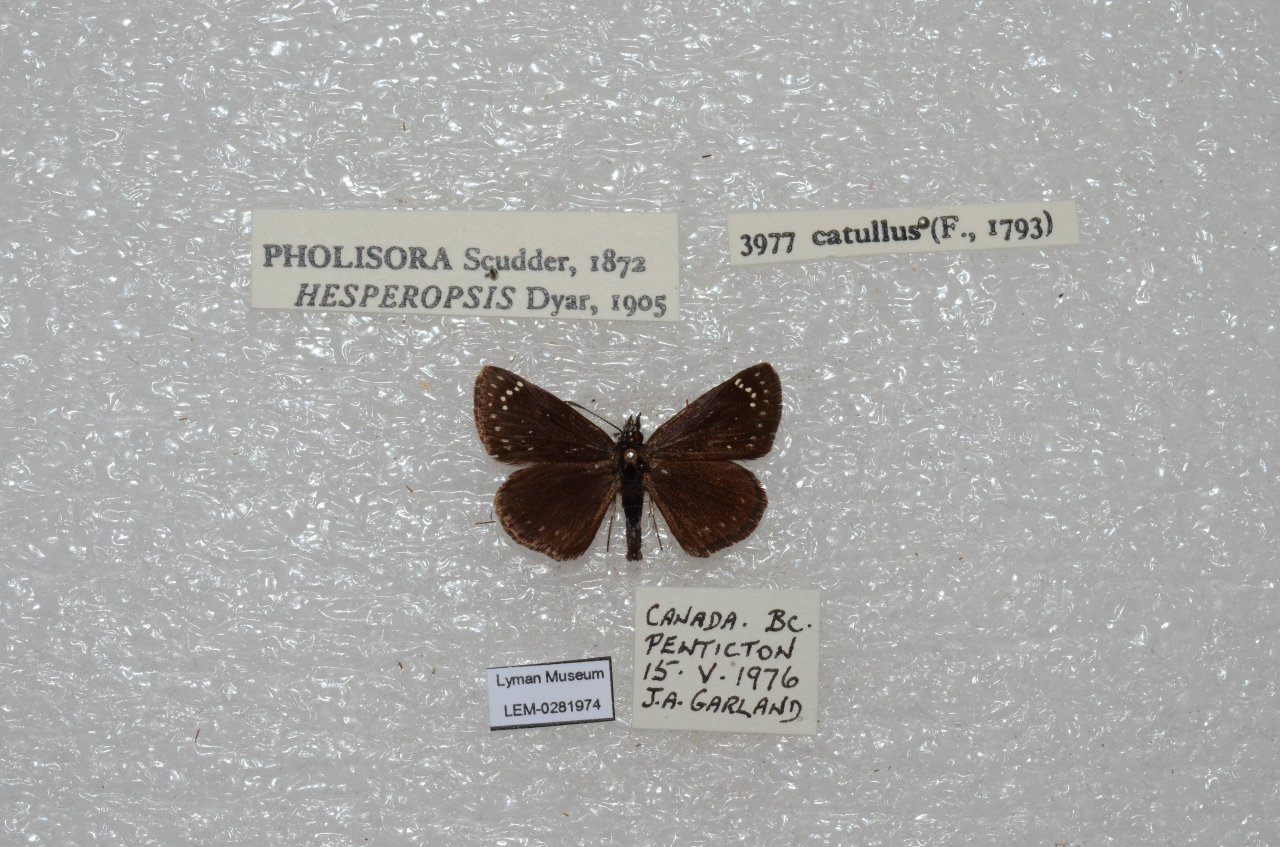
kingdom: Animalia
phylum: Arthropoda
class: Insecta
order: Lepidoptera
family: Hesperiidae
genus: Pholisora
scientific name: Pholisora catullus
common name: Common Sootywing
